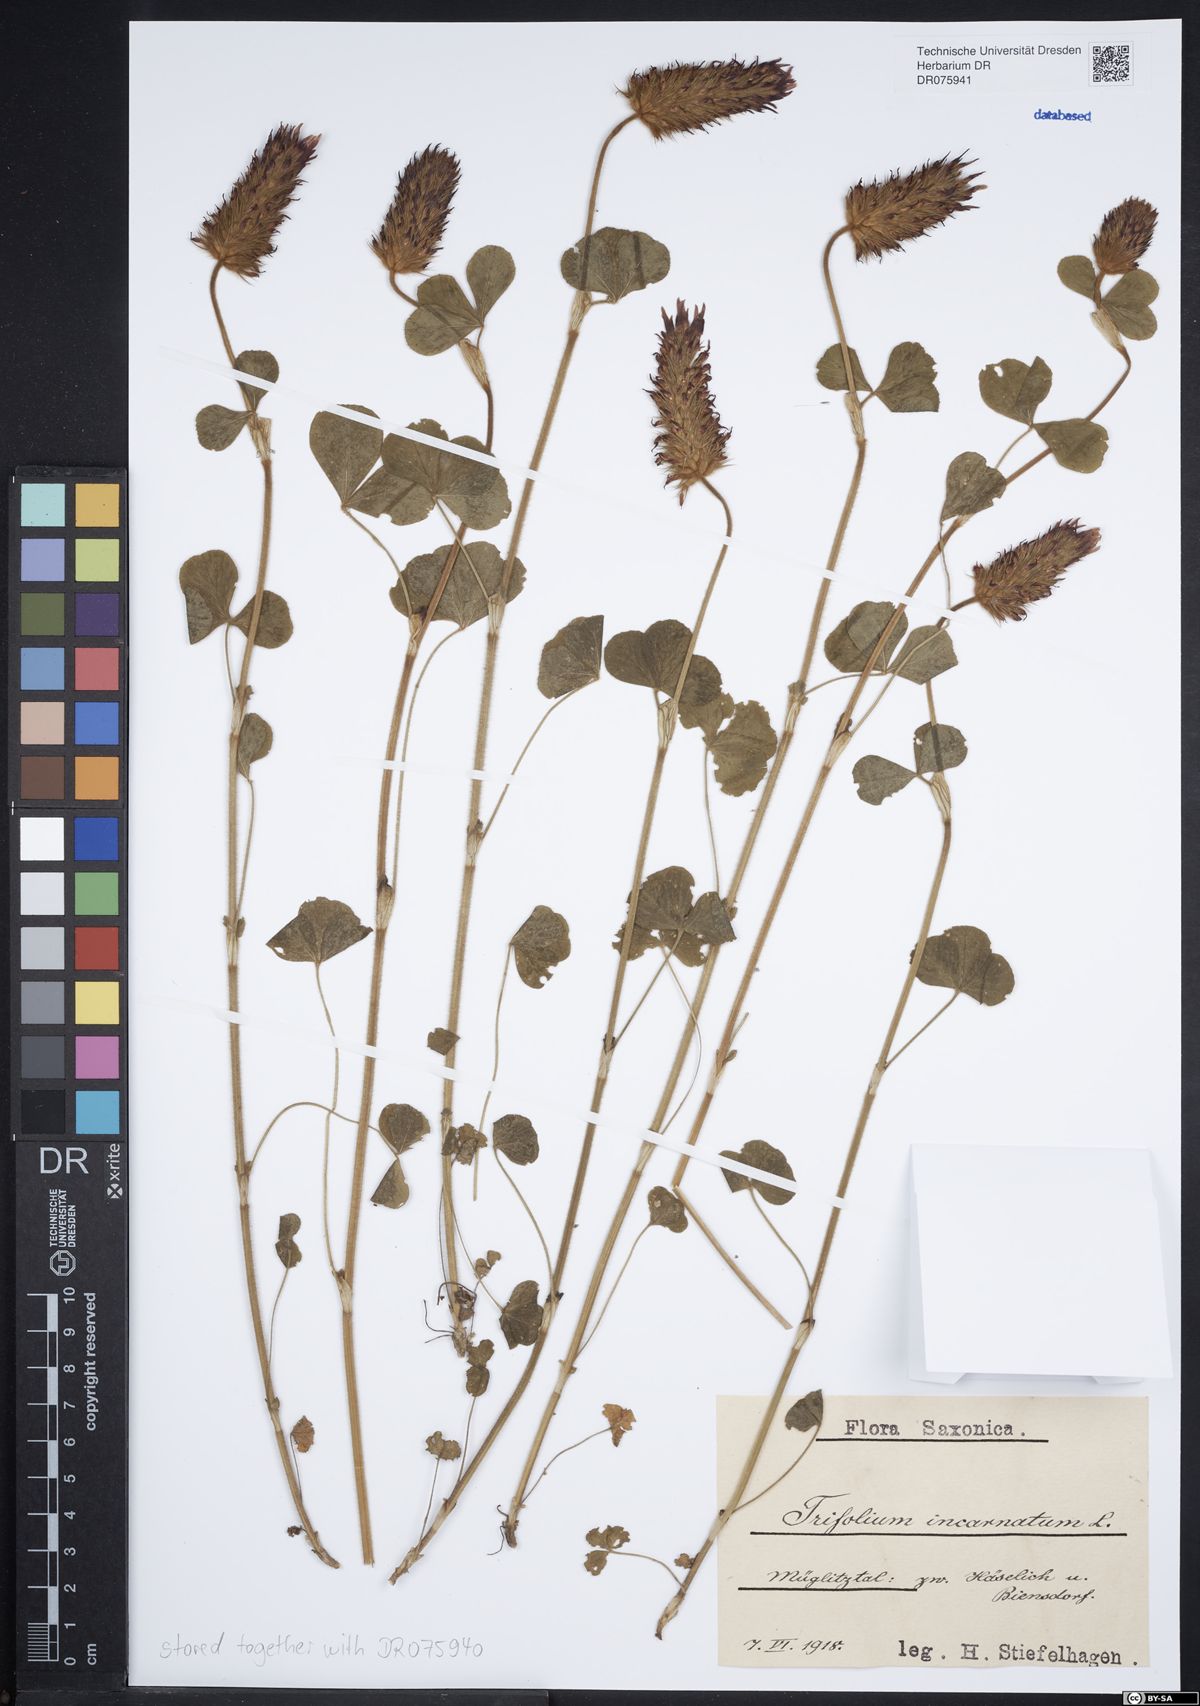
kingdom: Plantae
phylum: Tracheophyta
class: Magnoliopsida
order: Fabales
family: Fabaceae
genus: Trifolium
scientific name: Trifolium incarnatum
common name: Crimson clover
